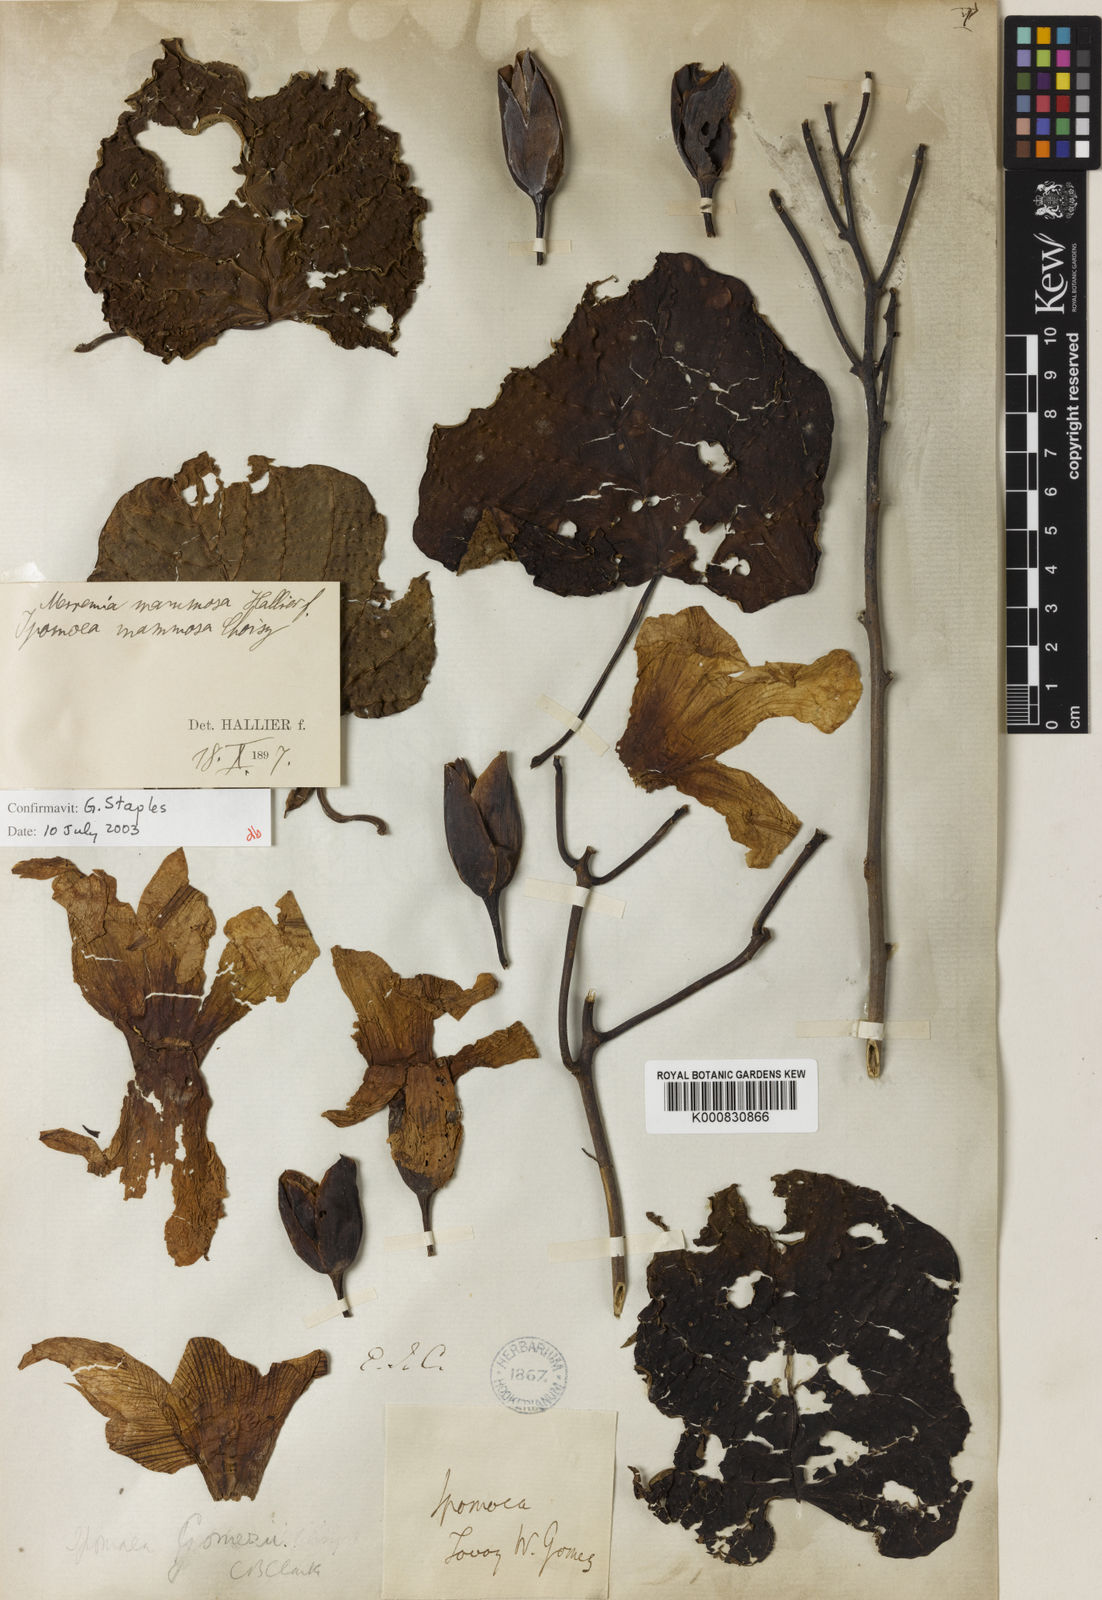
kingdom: Plantae
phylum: Tracheophyta
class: Magnoliopsida
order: Solanales
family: Convolvulaceae
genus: Decalobanthus
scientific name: Decalobanthus mammosus
